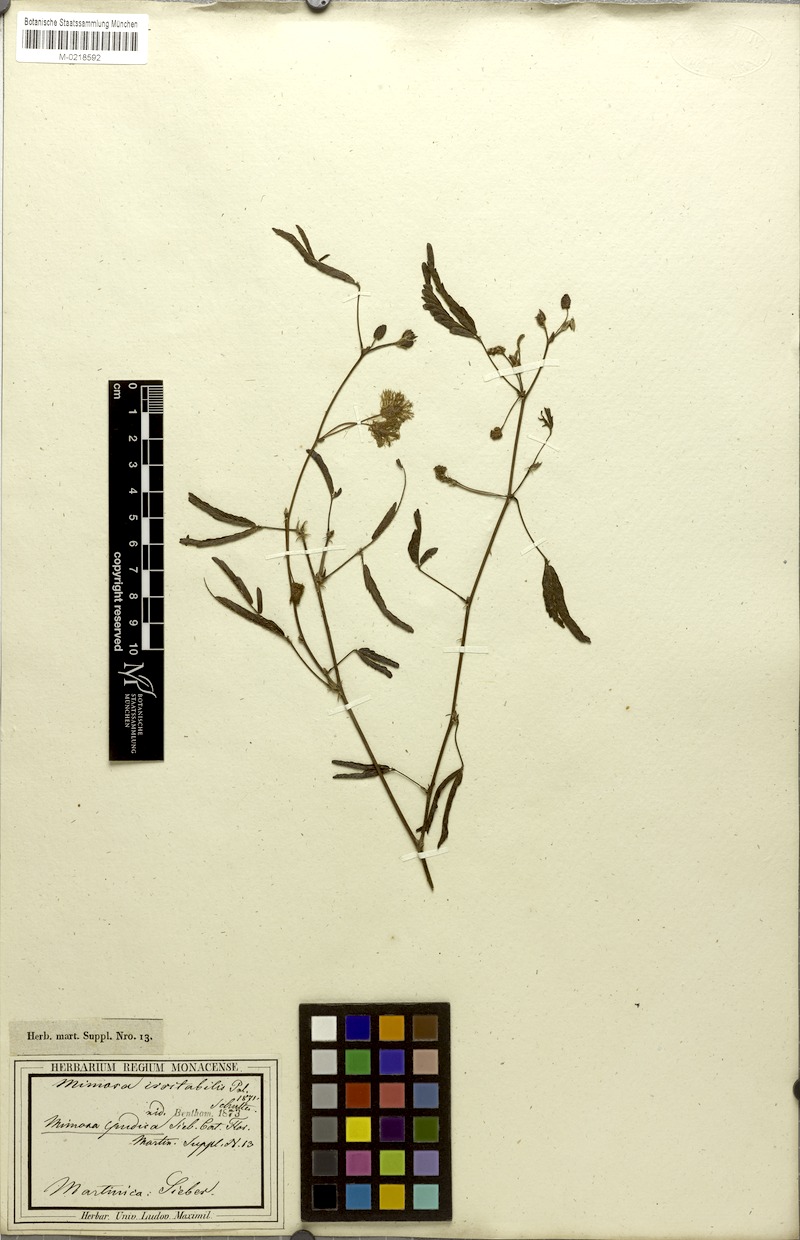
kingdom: Plantae
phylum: Tracheophyta
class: Magnoliopsida
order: Fabales
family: Fabaceae
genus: Mimosa
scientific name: Mimosa pudica
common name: Sensitive plant
